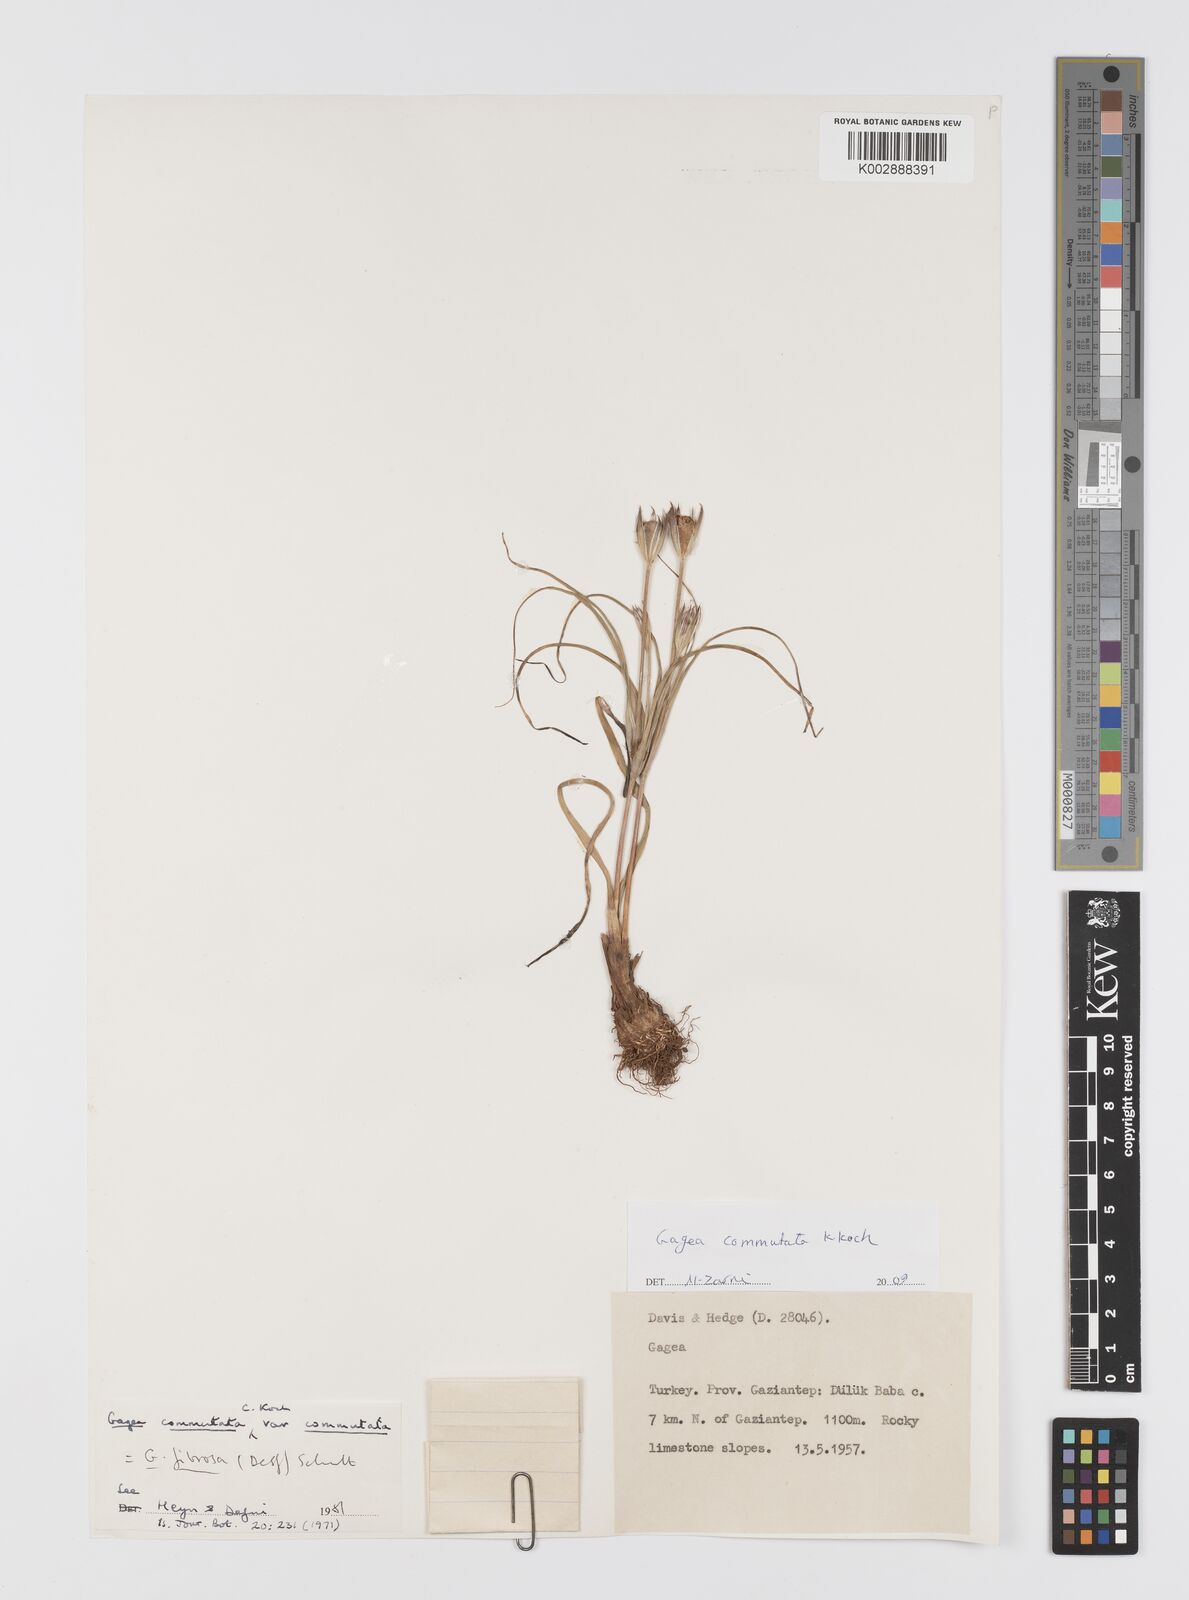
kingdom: Plantae
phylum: Tracheophyta
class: Liliopsida
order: Liliales
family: Liliaceae
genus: Gagea
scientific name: Gagea commutata
